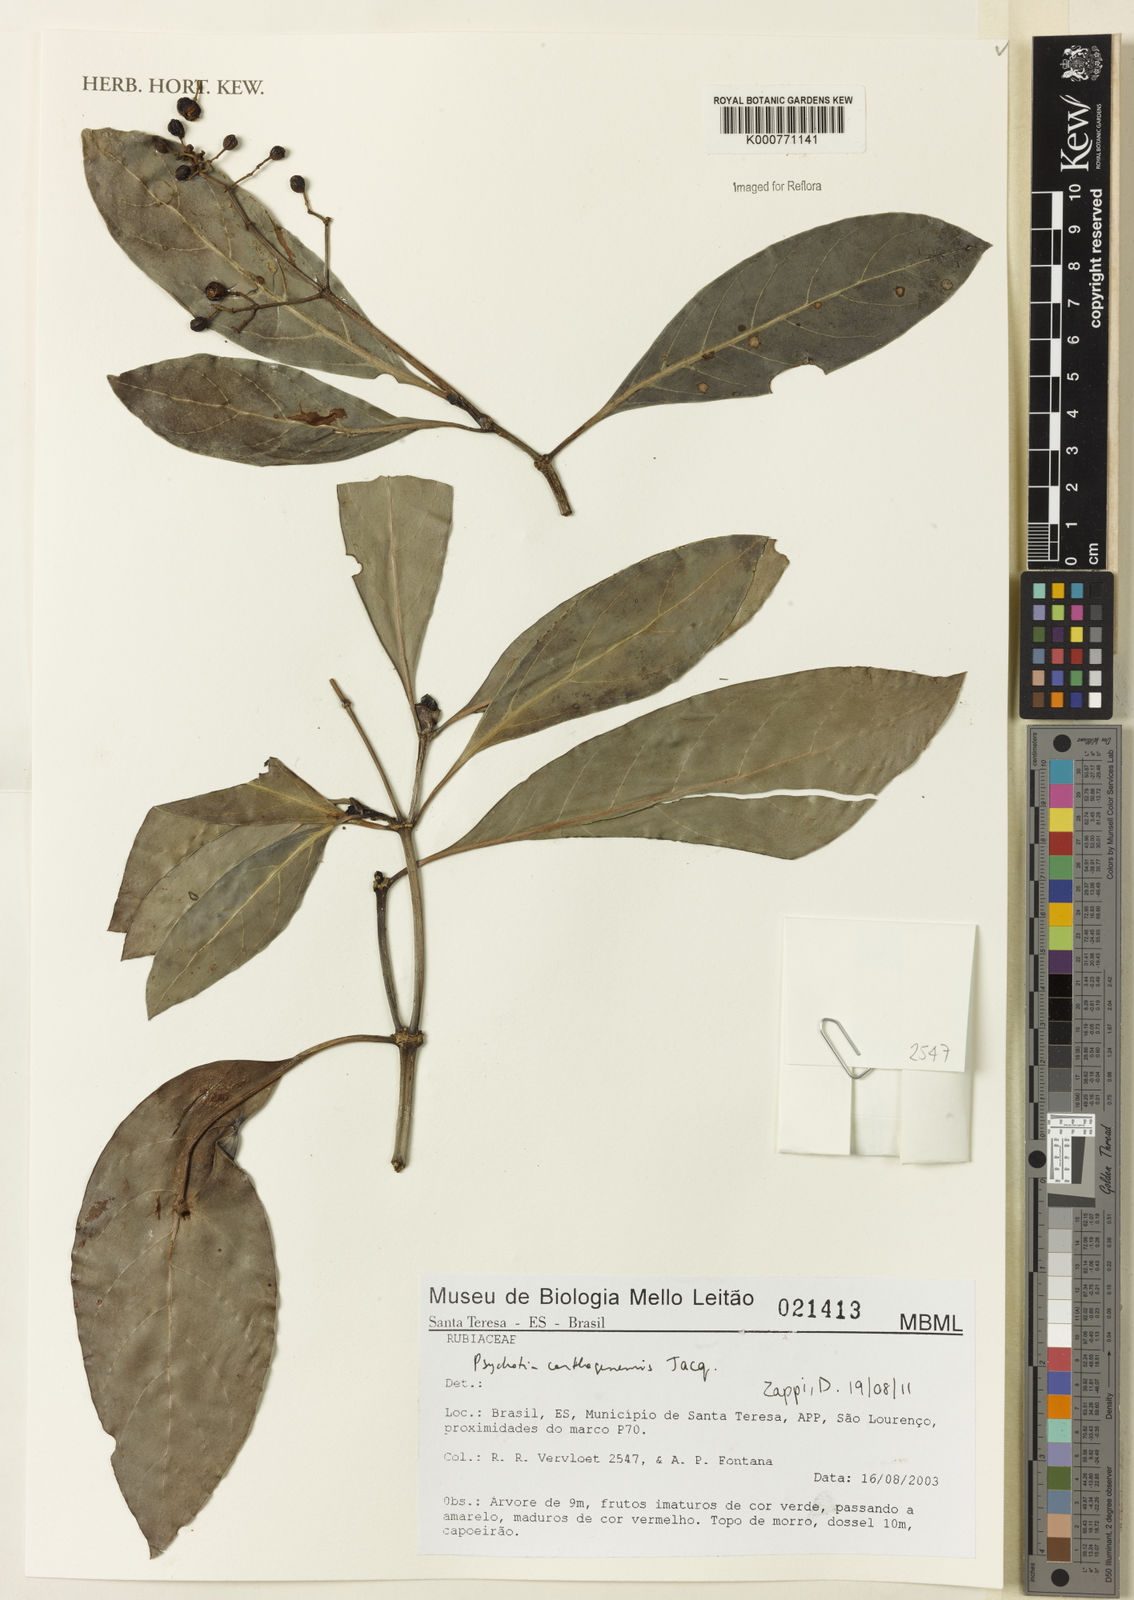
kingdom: Plantae
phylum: Tracheophyta
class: Magnoliopsida
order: Gentianales
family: Rubiaceae
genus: Psychotria
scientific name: Psychotria carthagenensis
